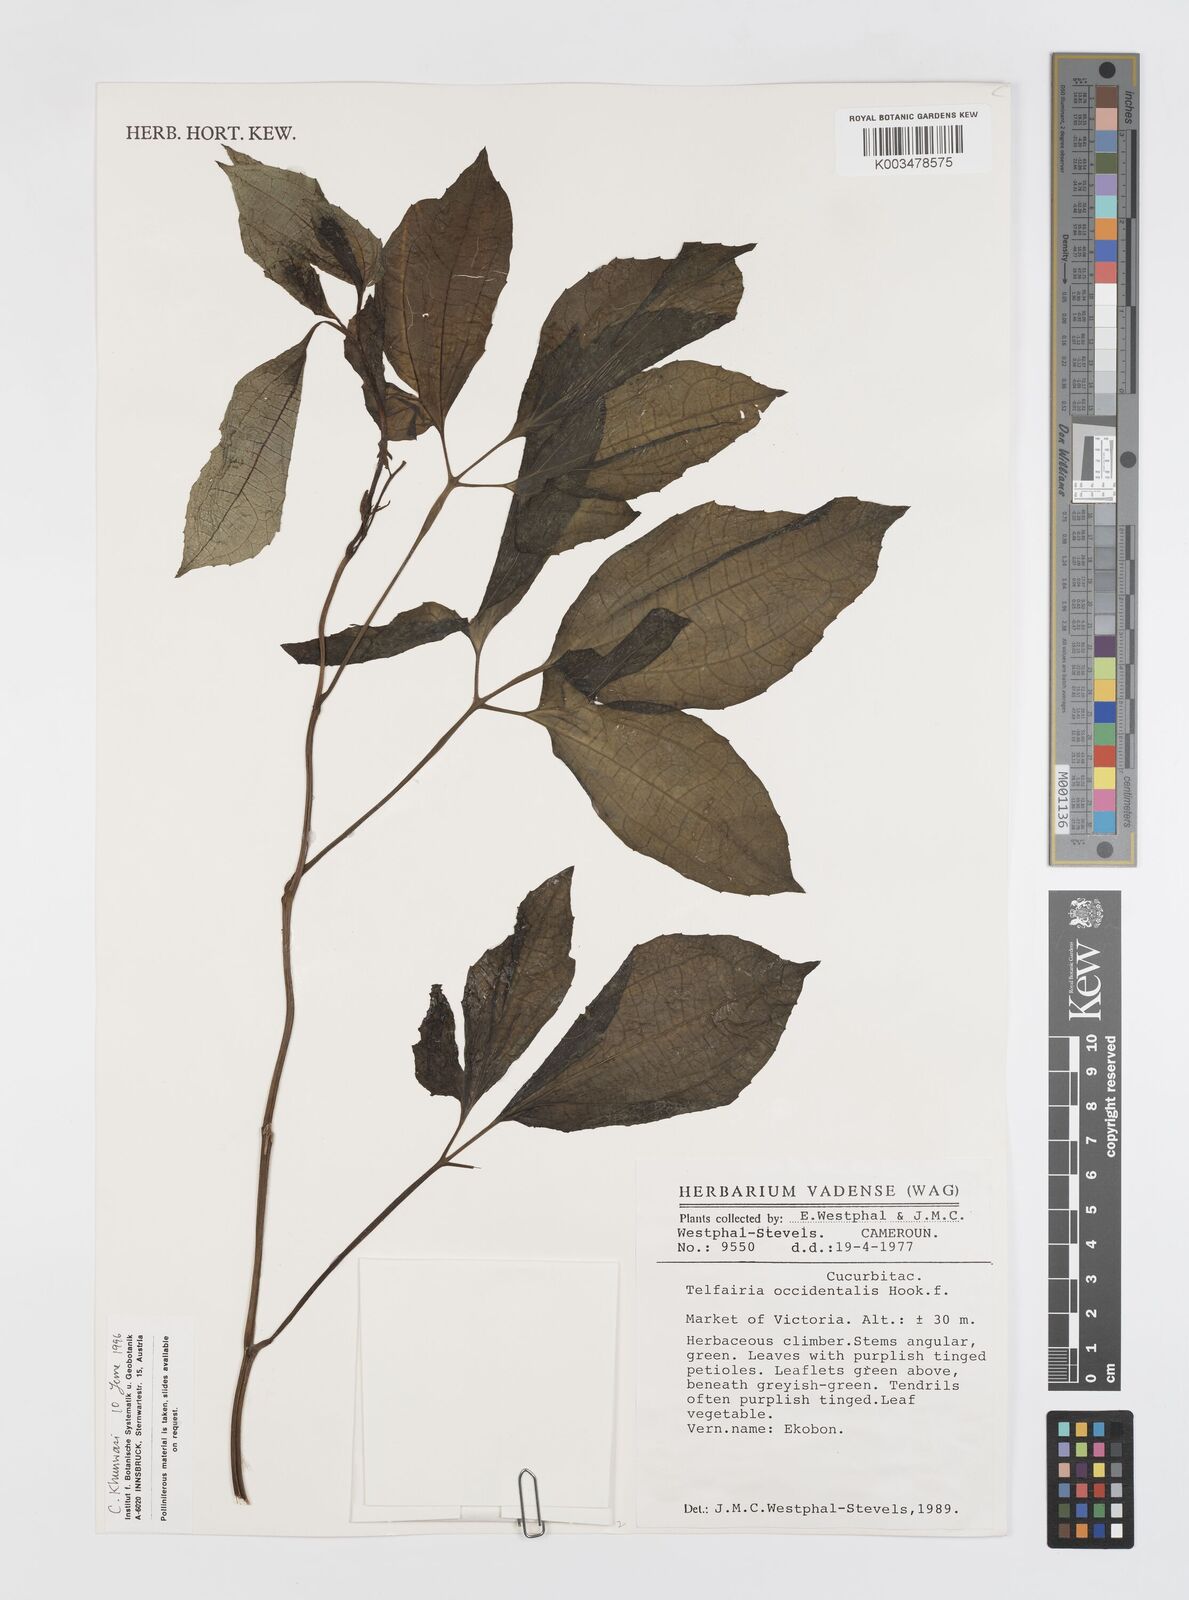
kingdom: Plantae
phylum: Tracheophyta
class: Magnoliopsida
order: Cucurbitales
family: Cucurbitaceae
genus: Telfairia
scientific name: Telfairia occidentalis
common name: Oysternut
